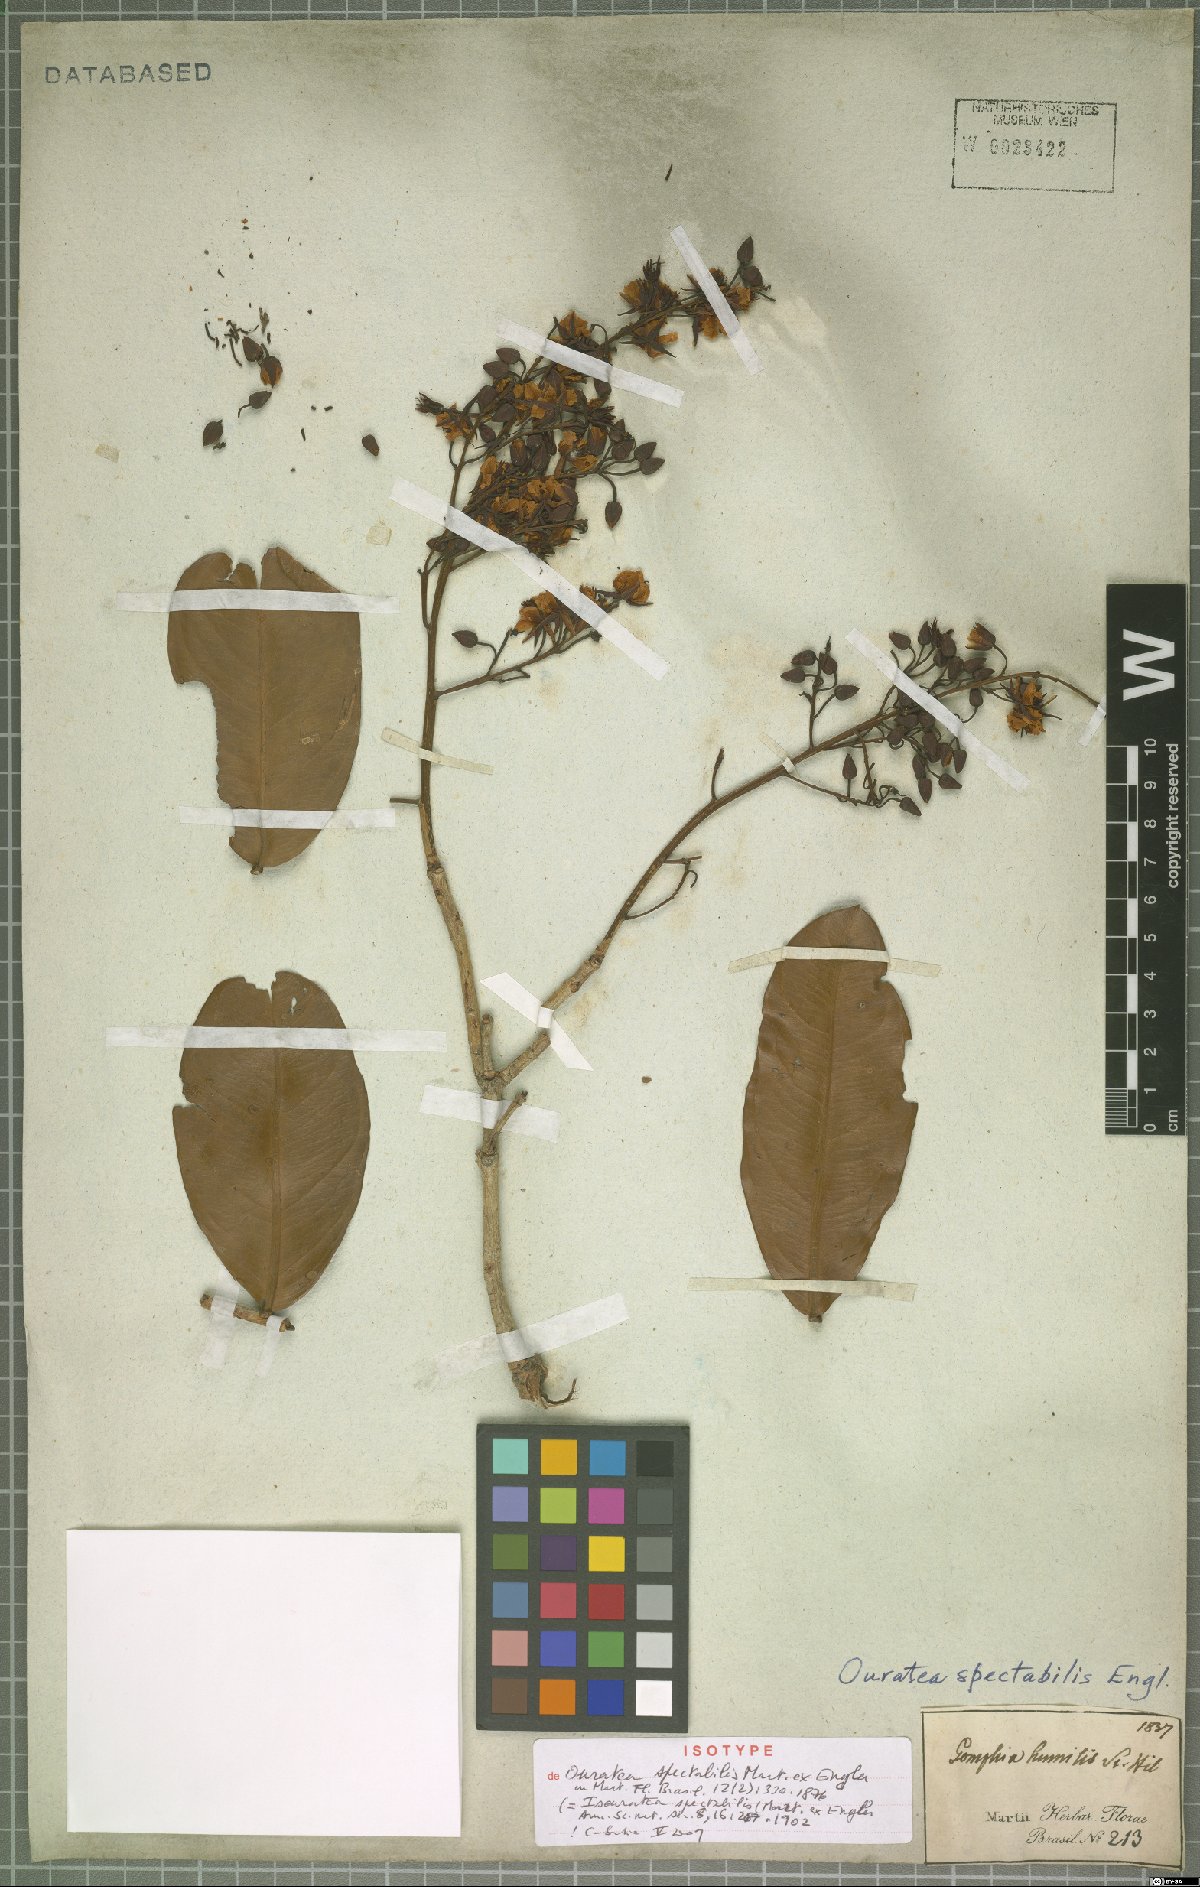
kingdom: Plantae
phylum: Tracheophyta
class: Magnoliopsida
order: Malpighiales
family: Ochnaceae
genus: Ouratea
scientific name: Ouratea spectabilis
